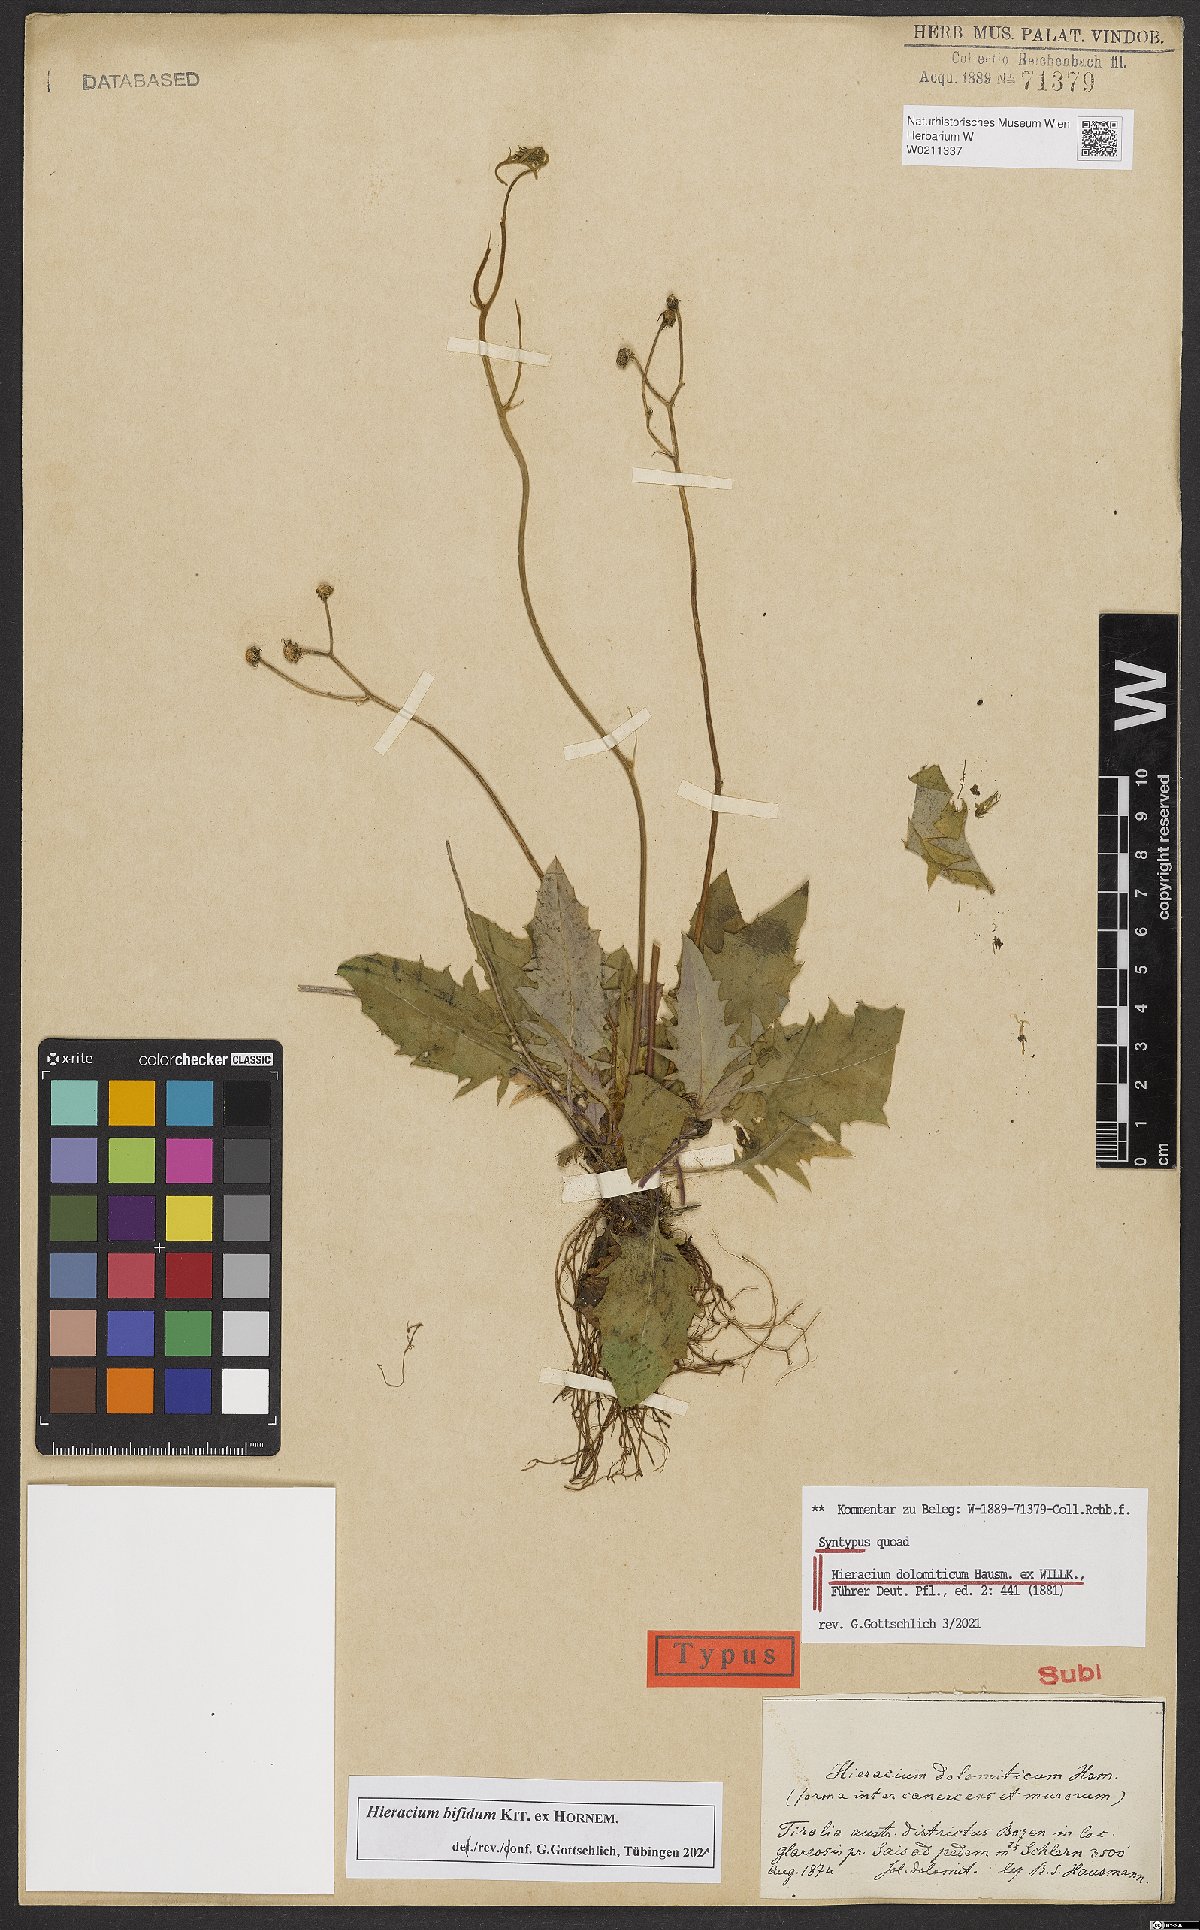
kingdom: Plantae
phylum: Tracheophyta
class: Magnoliopsida
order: Asterales
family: Asteraceae
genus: Hieracium
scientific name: Hieracium bifidum
